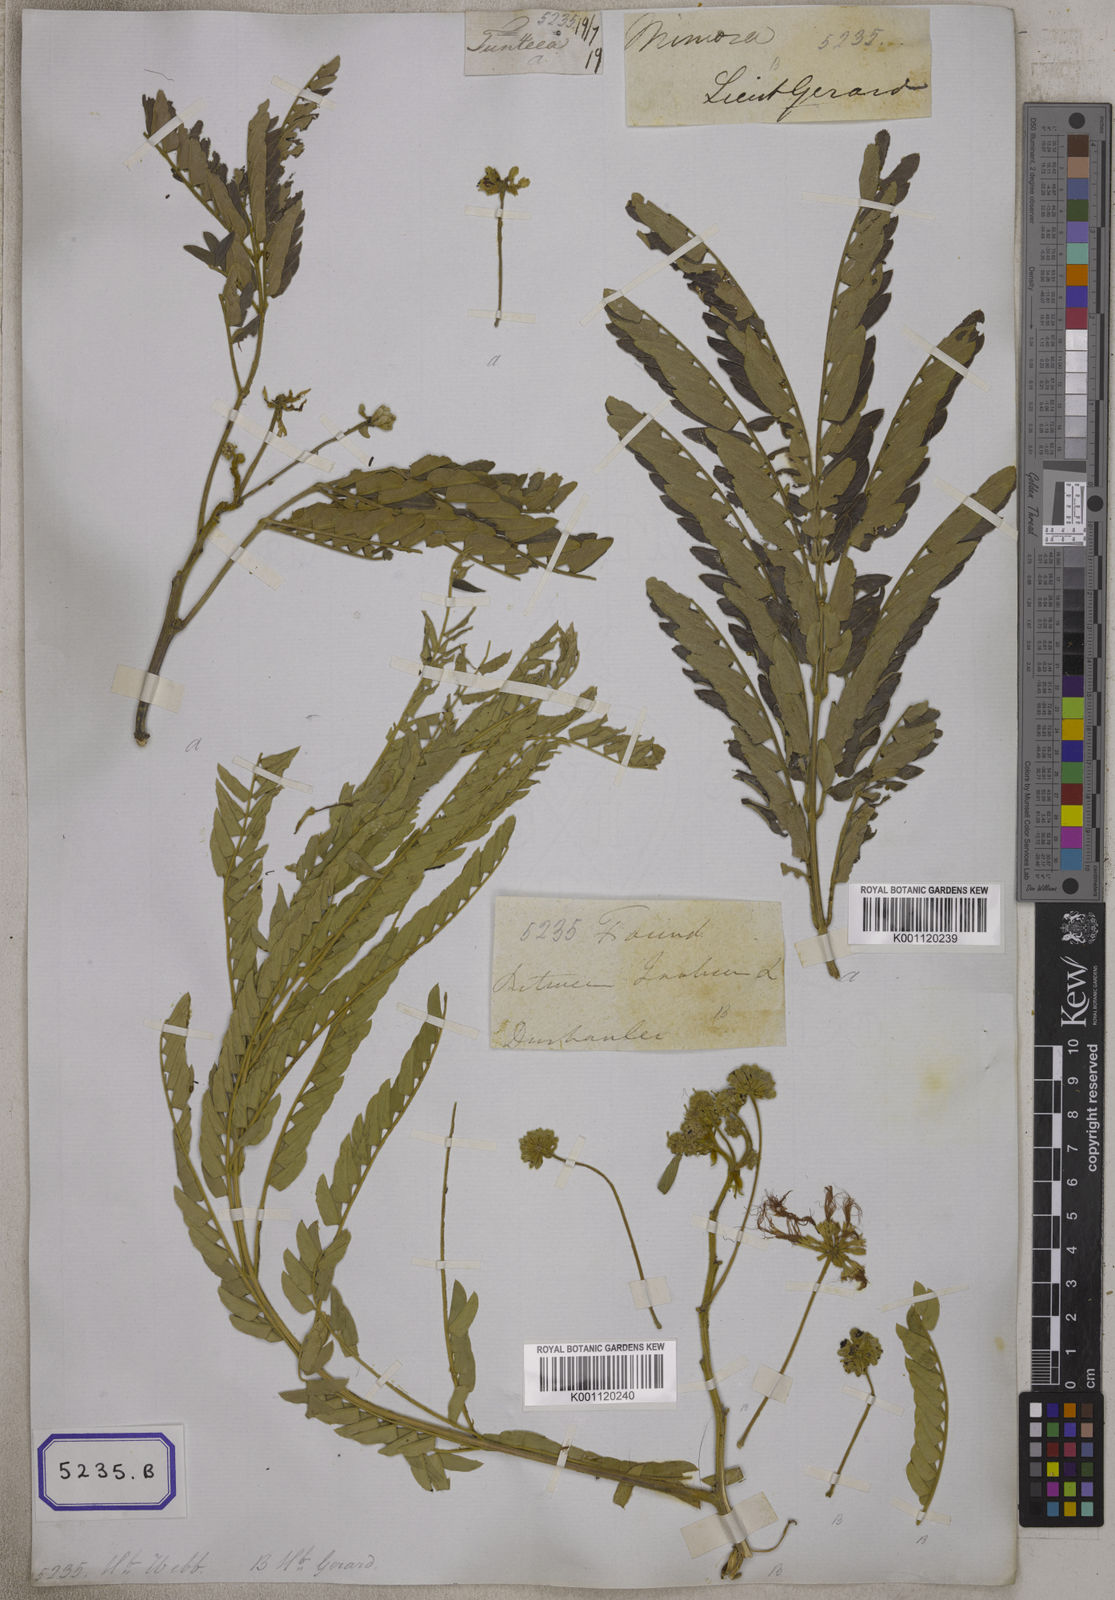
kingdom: Plantae
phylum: Tracheophyta
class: Magnoliopsida
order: Fabales
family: Fabaceae
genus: Albizia
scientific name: Albizia julibrissin
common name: Silktree
